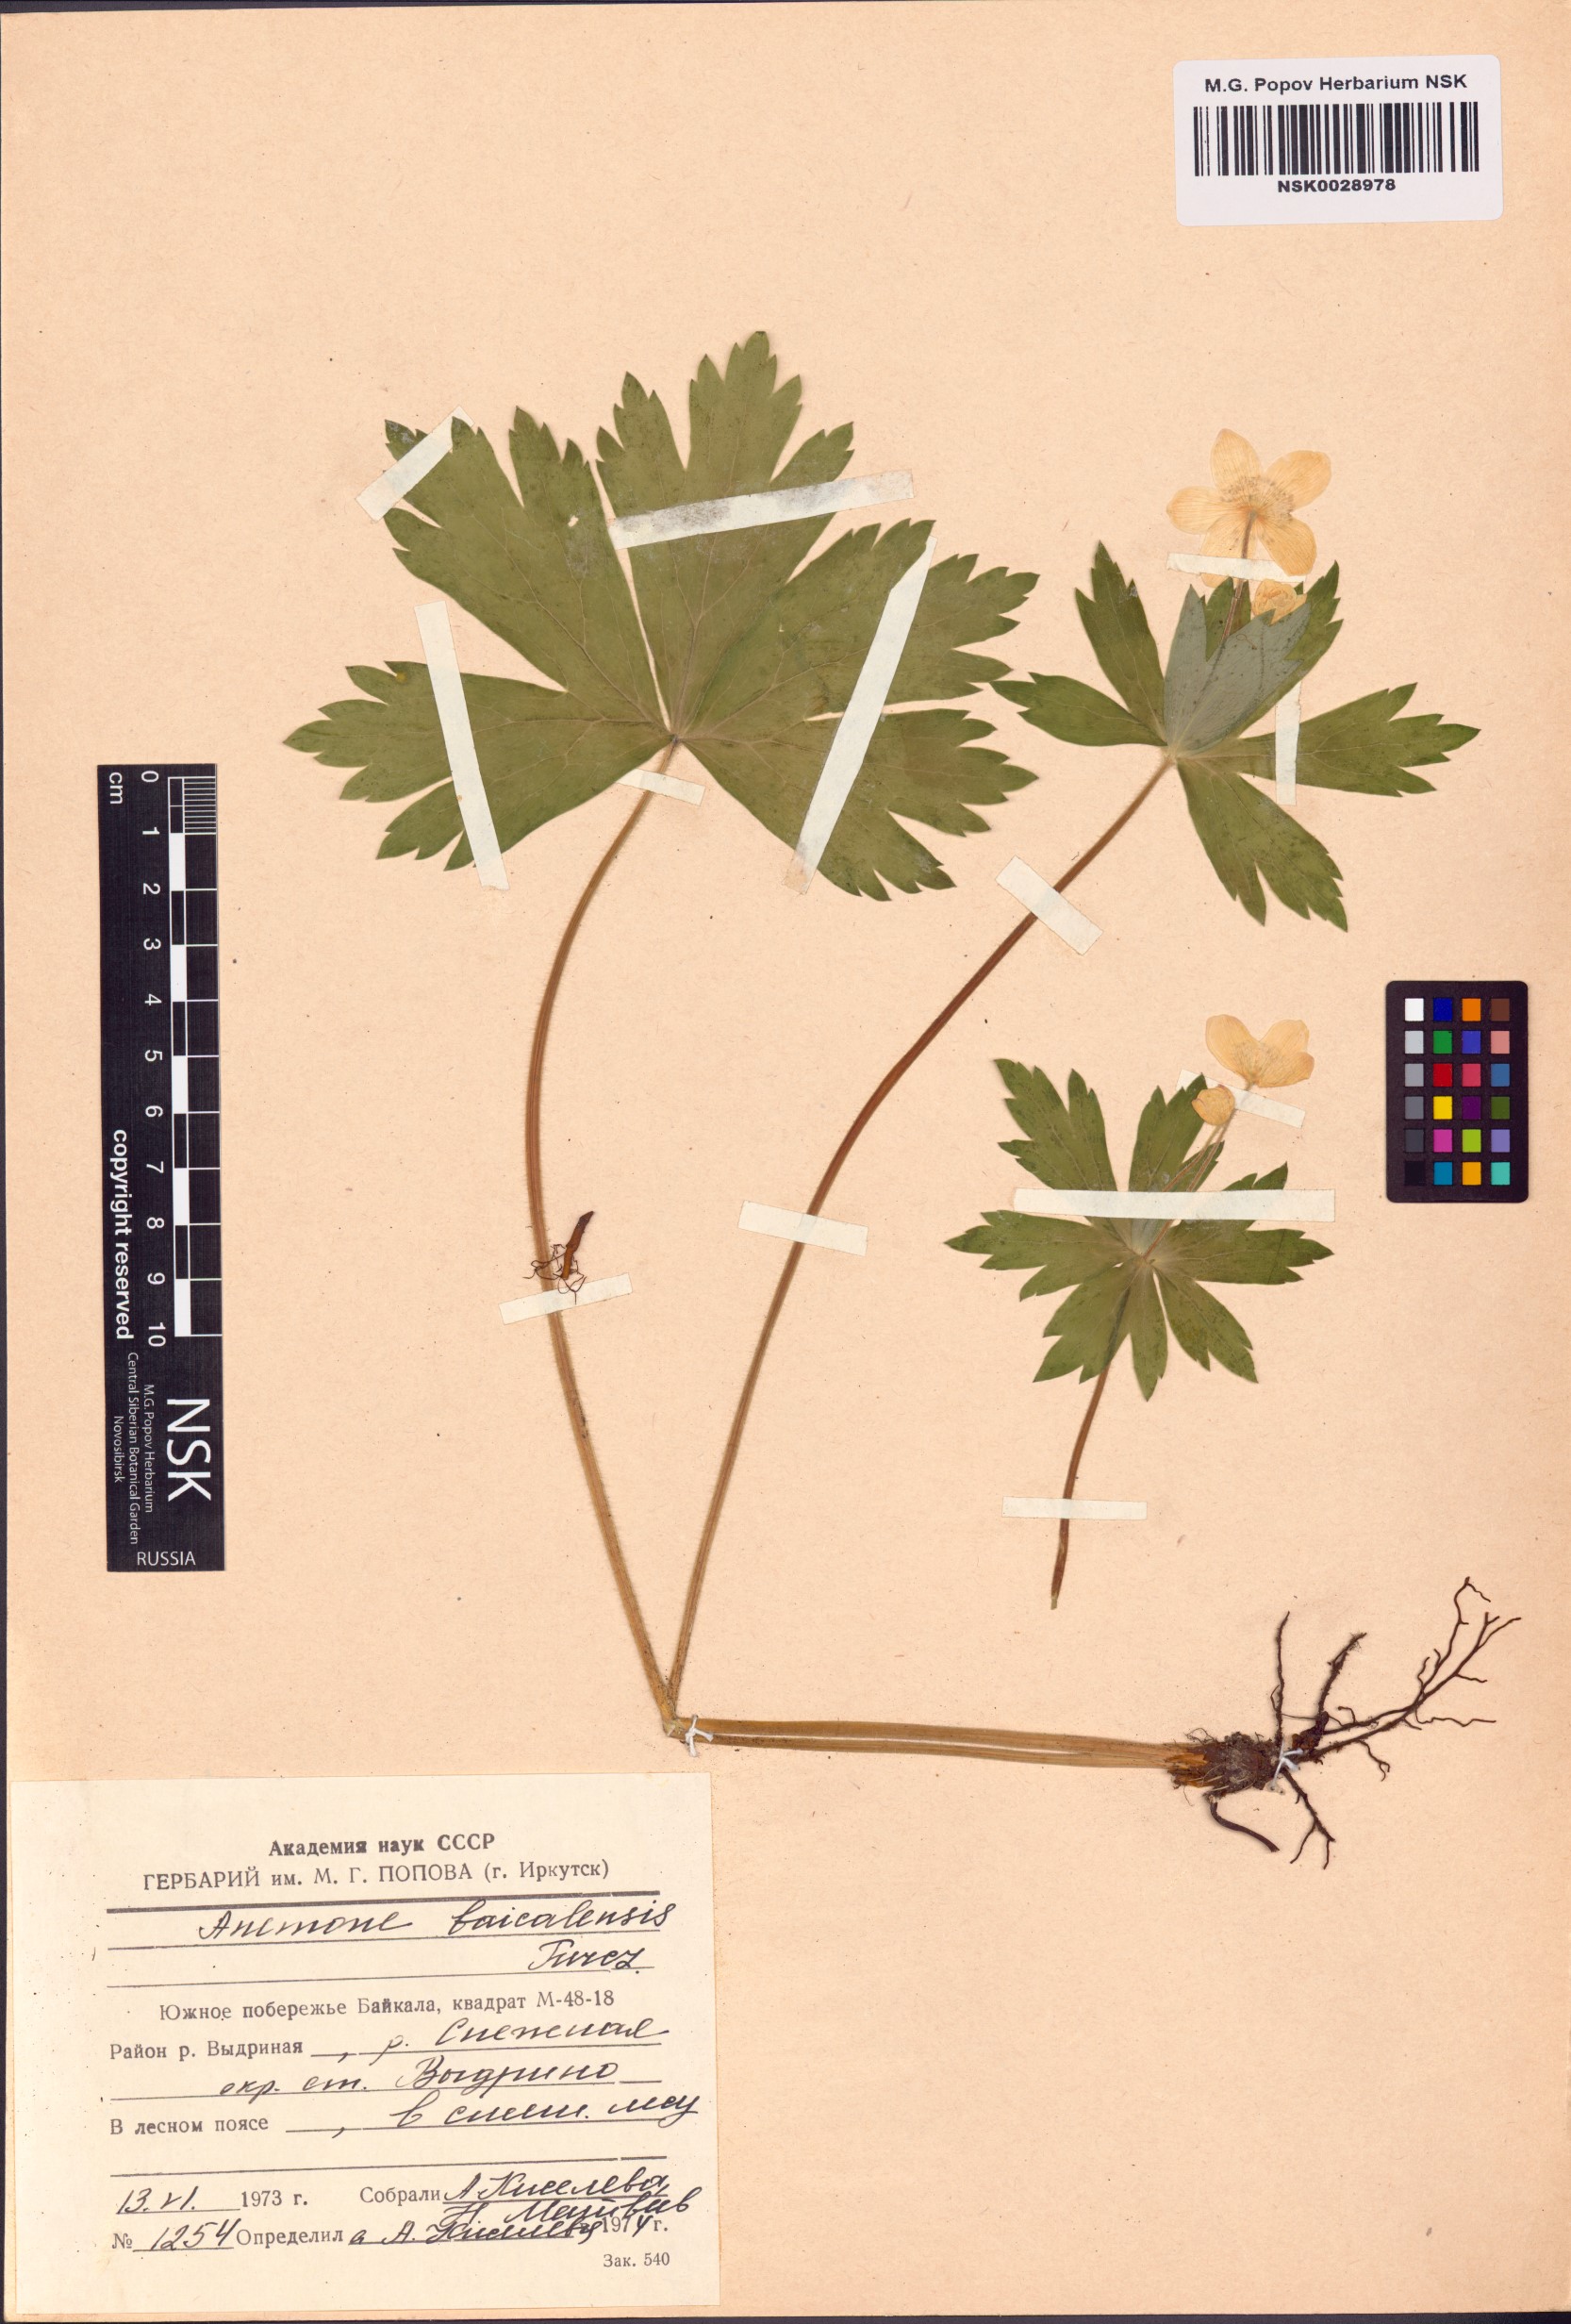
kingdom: Plantae
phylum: Tracheophyta
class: Magnoliopsida
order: Ranunculales
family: Ranunculaceae
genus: Anemonastrum
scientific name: Anemonastrum baicalense
